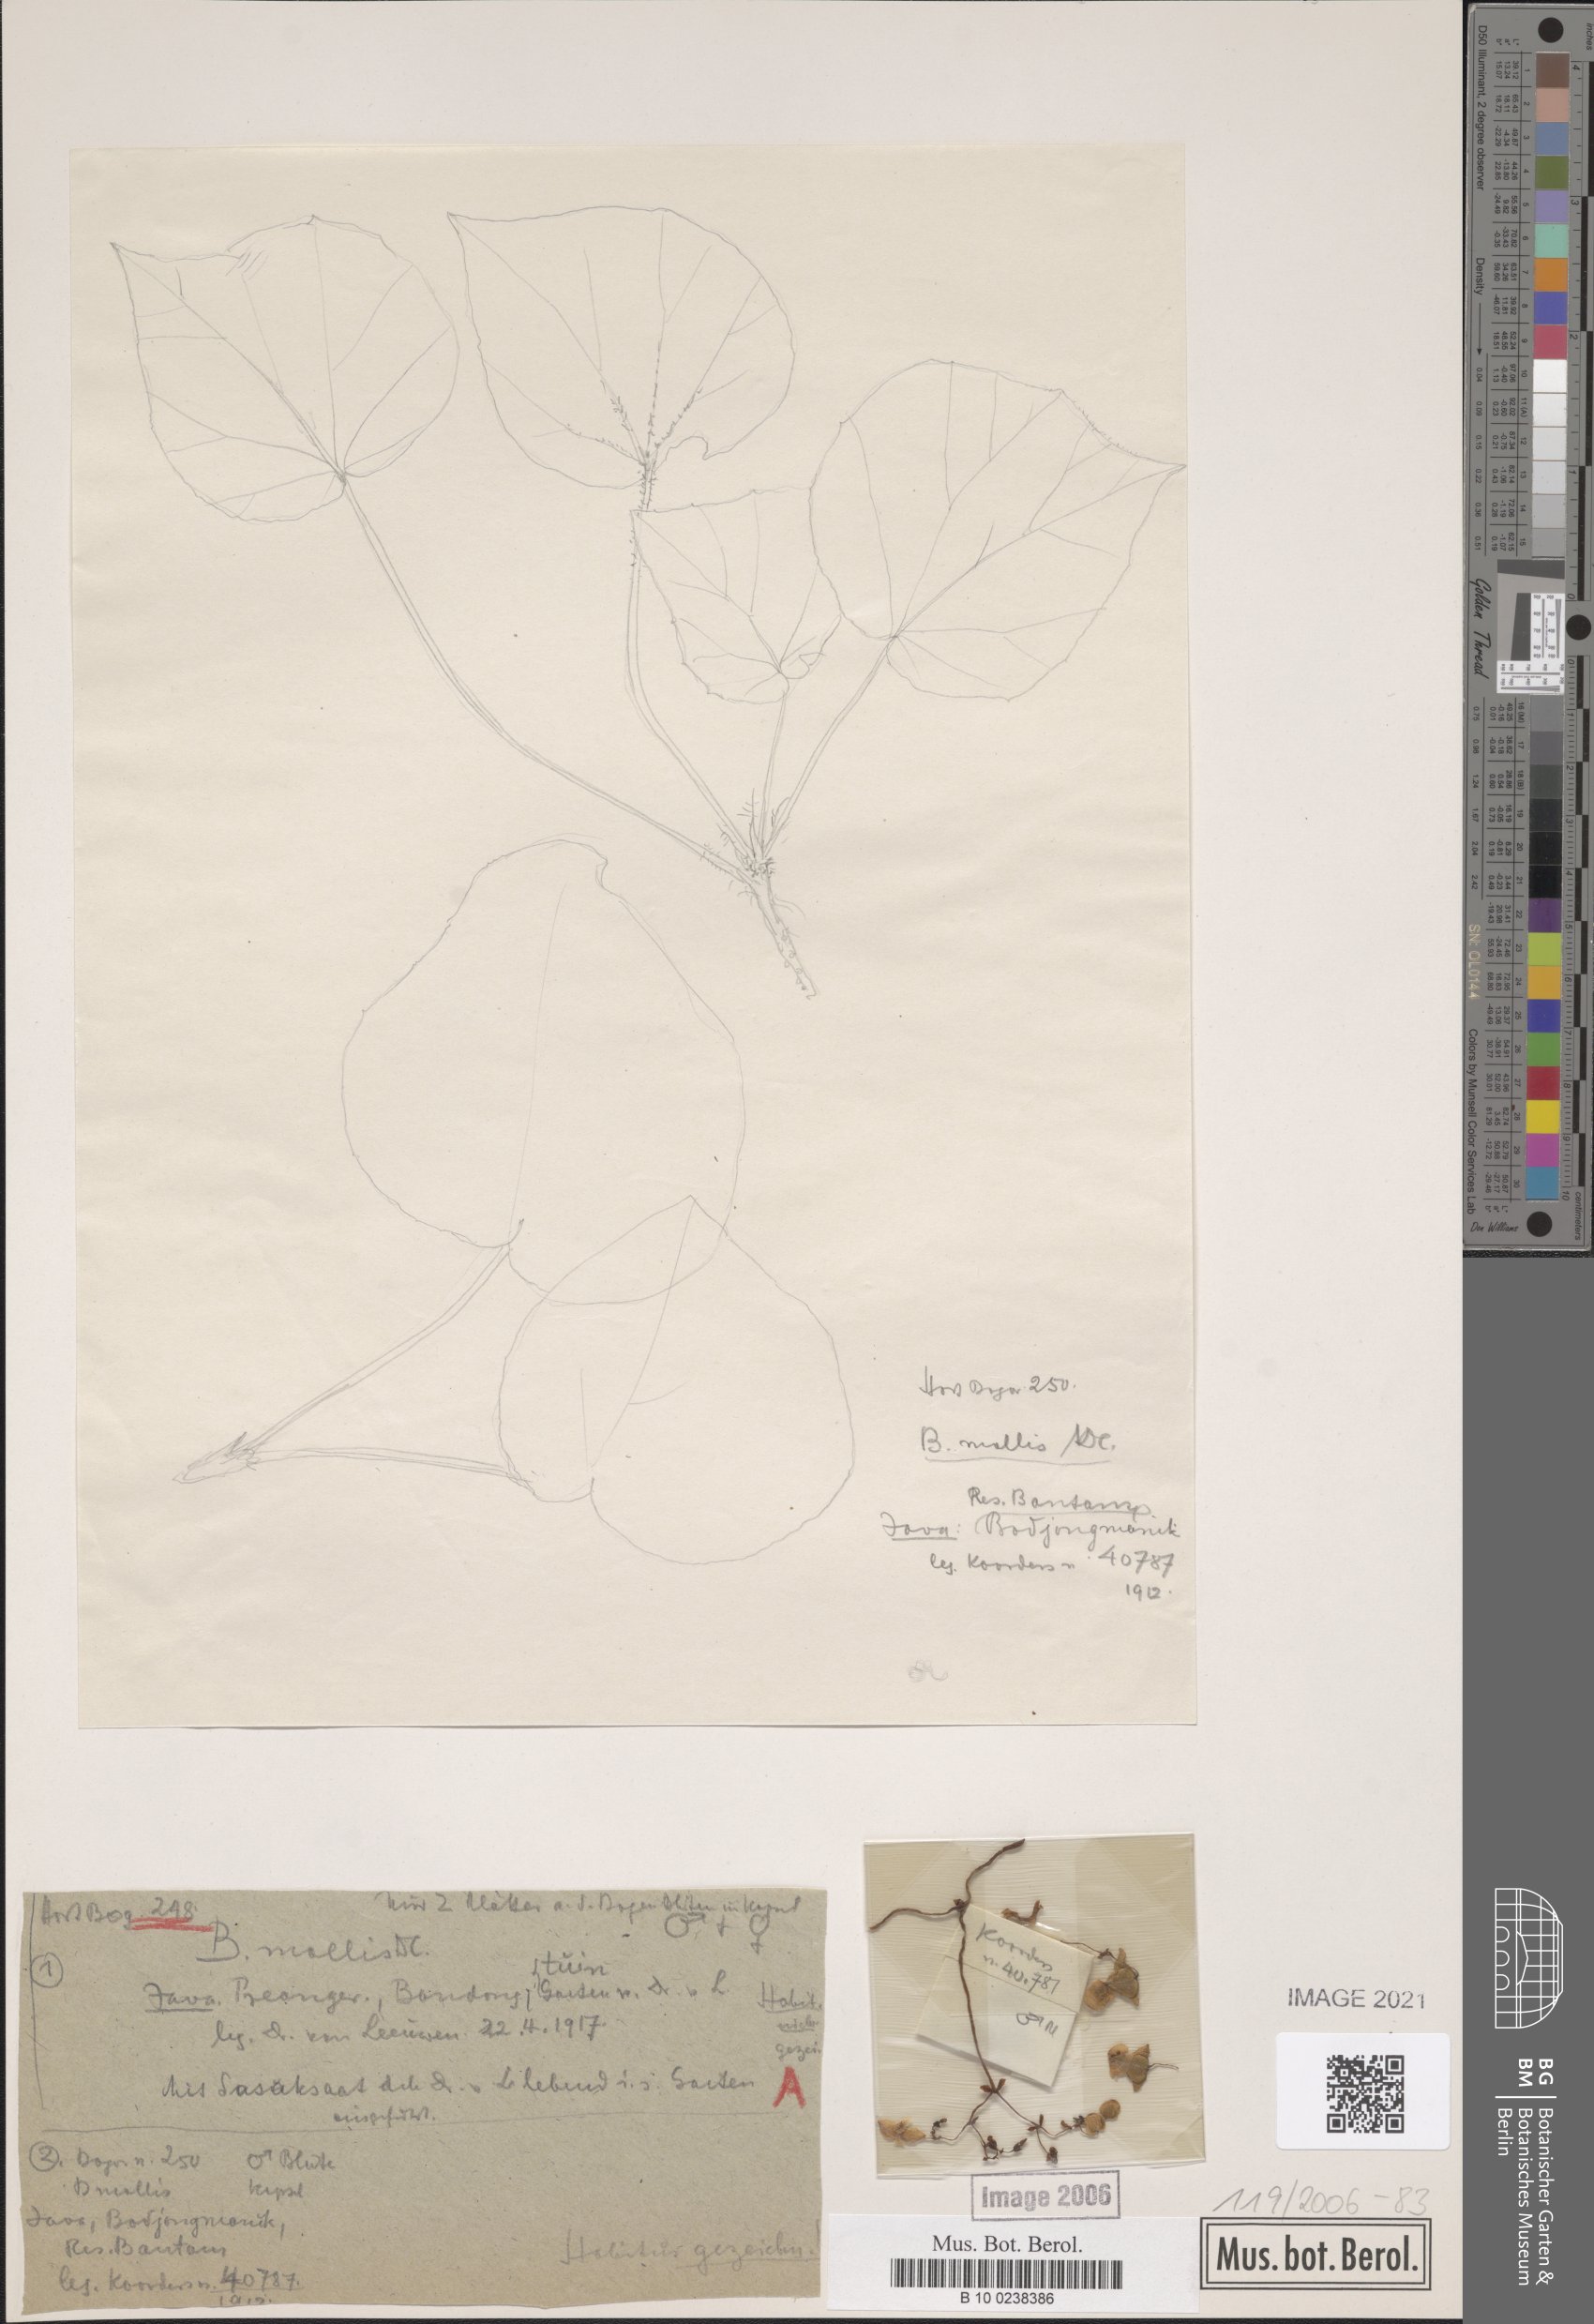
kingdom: Plantae
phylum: Tracheophyta
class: Magnoliopsida
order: Cucurbitales
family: Begoniaceae
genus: Begonia
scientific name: Begonia mollis
